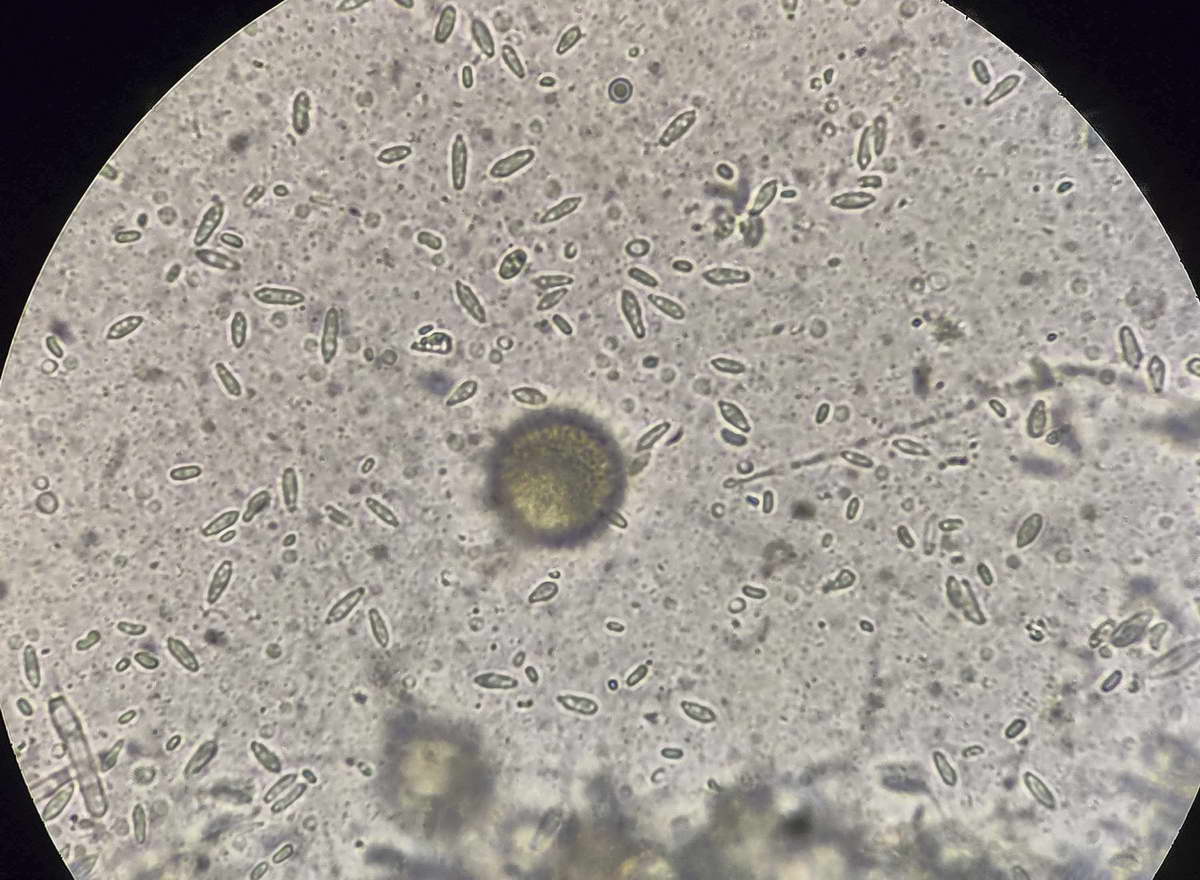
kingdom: Fungi
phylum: Ascomycota
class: Sordariomycetes
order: Hypocreales
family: Hypocreaceae
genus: Hypomyces
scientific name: Hypomyces perniciosus
